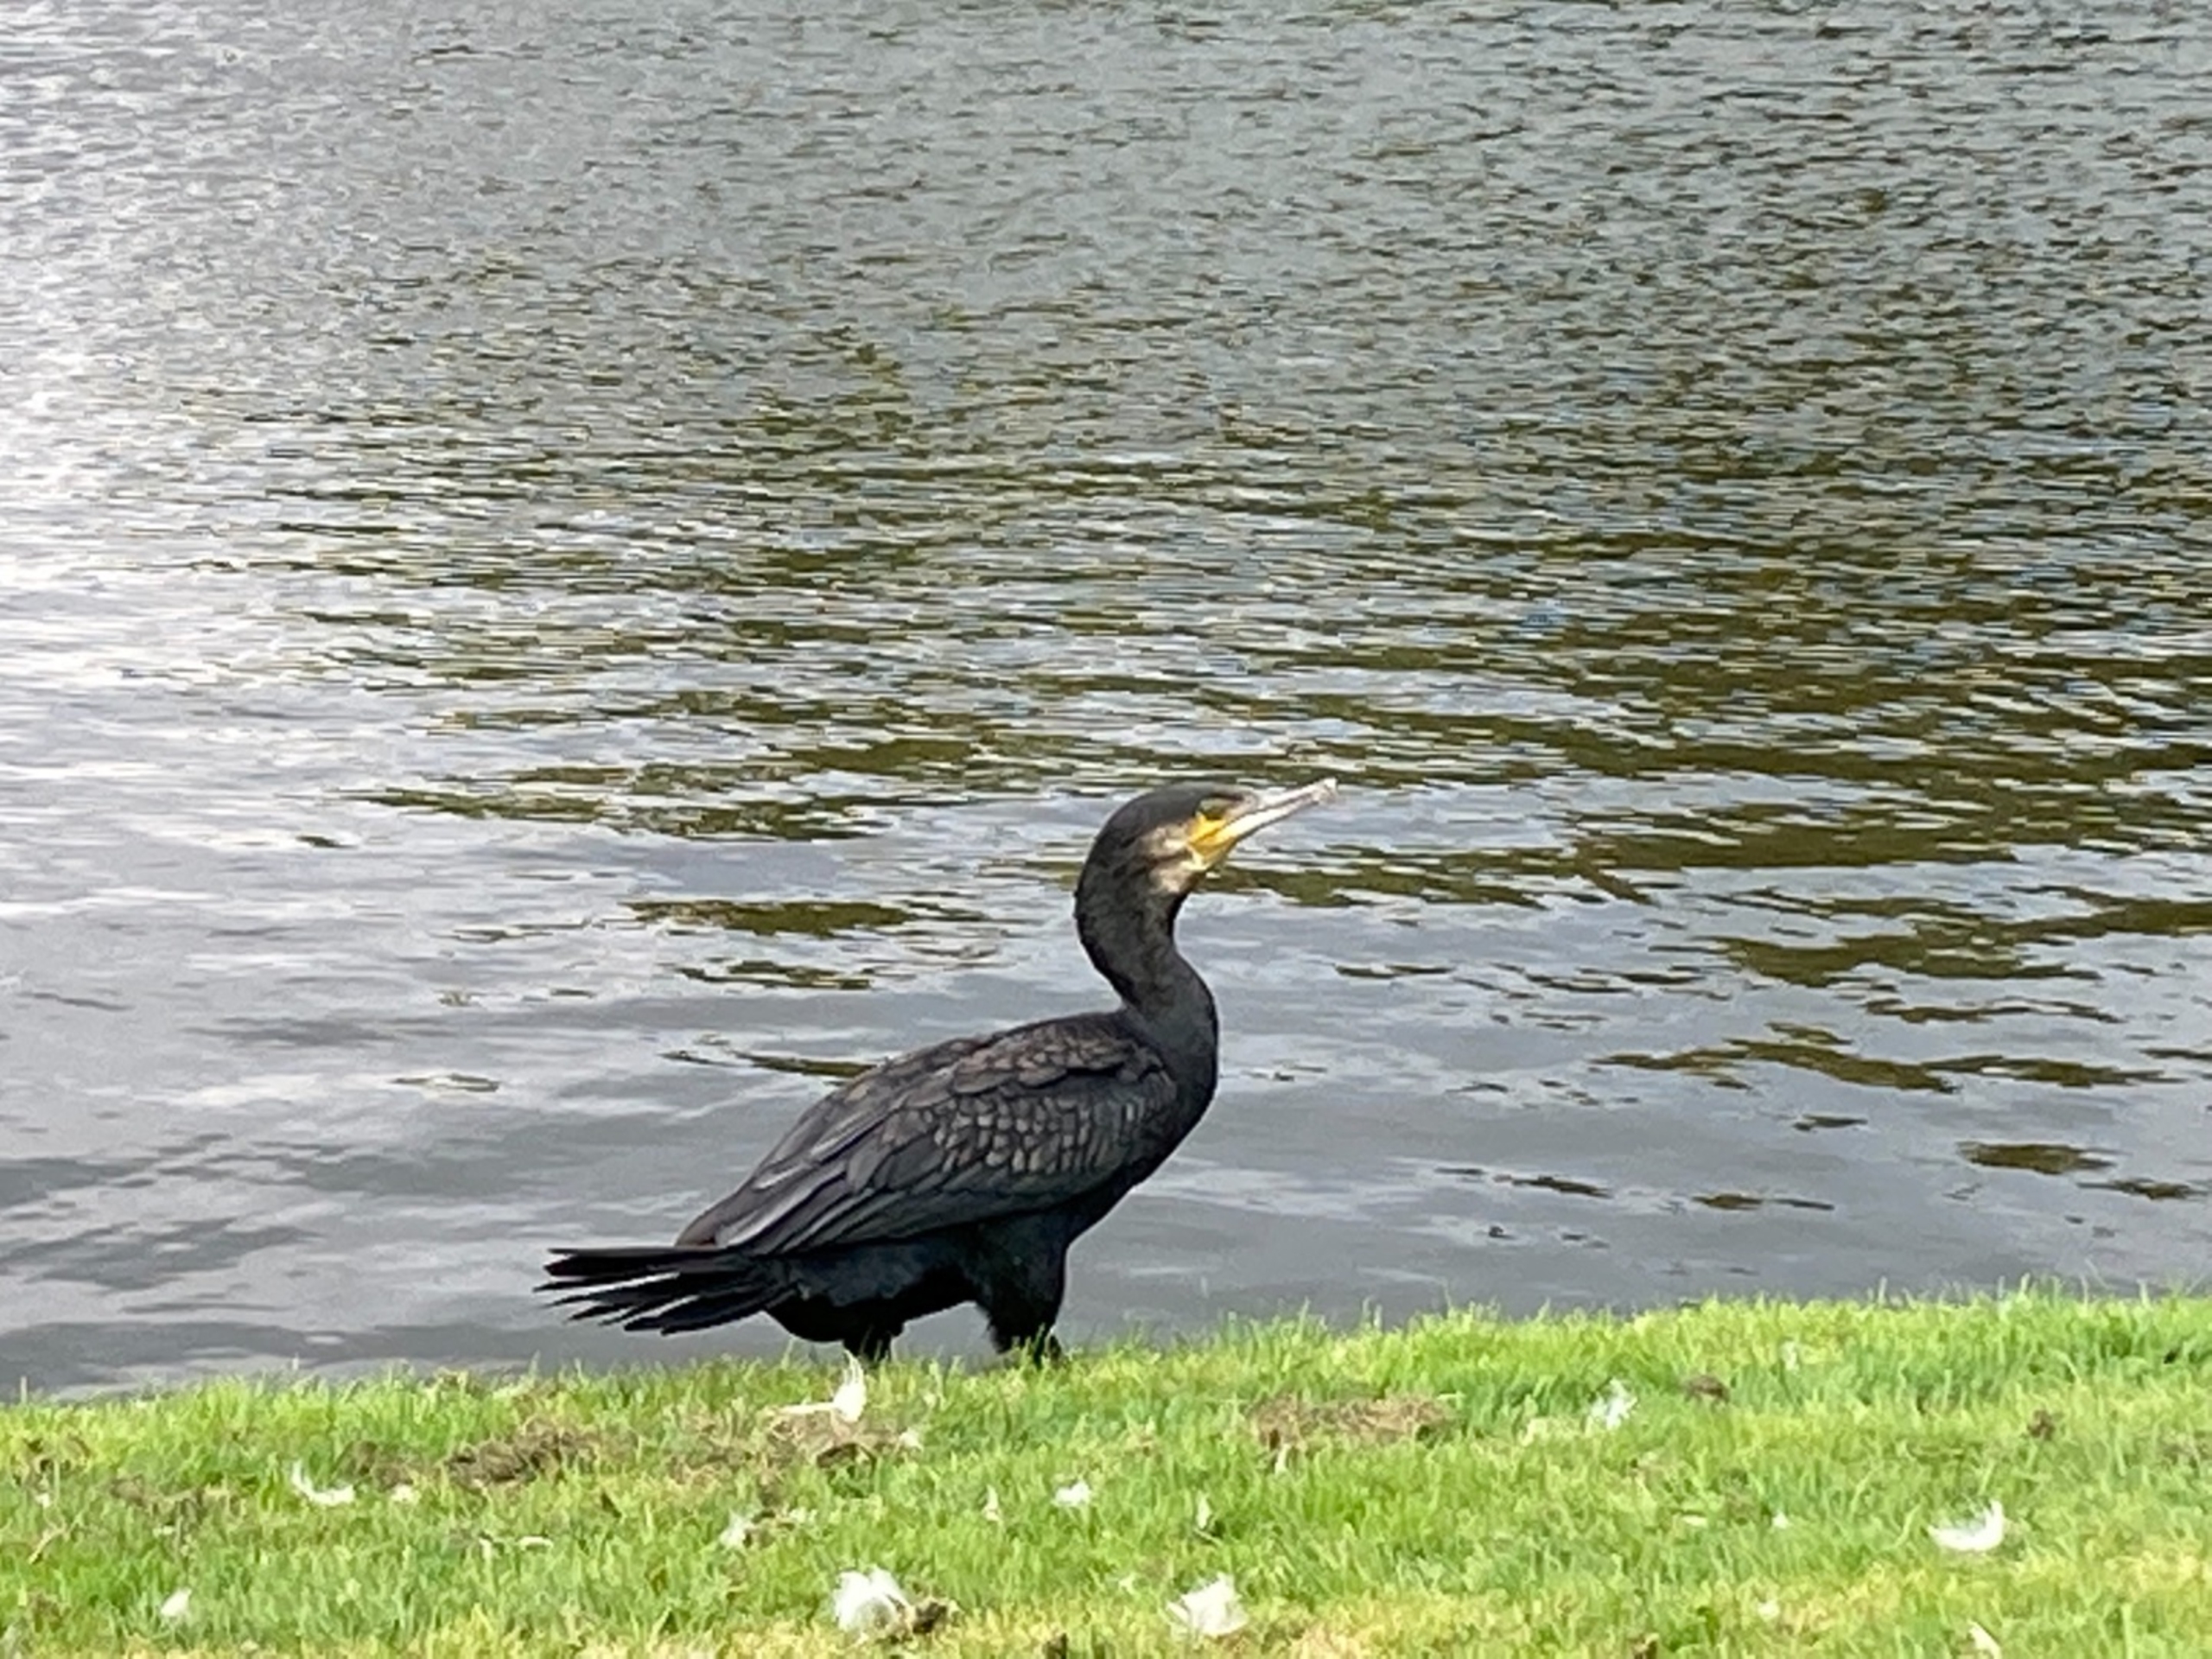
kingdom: Animalia
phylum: Chordata
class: Aves
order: Suliformes
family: Phalacrocoracidae
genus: Phalacrocorax
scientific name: Phalacrocorax carbo
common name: Skarv
